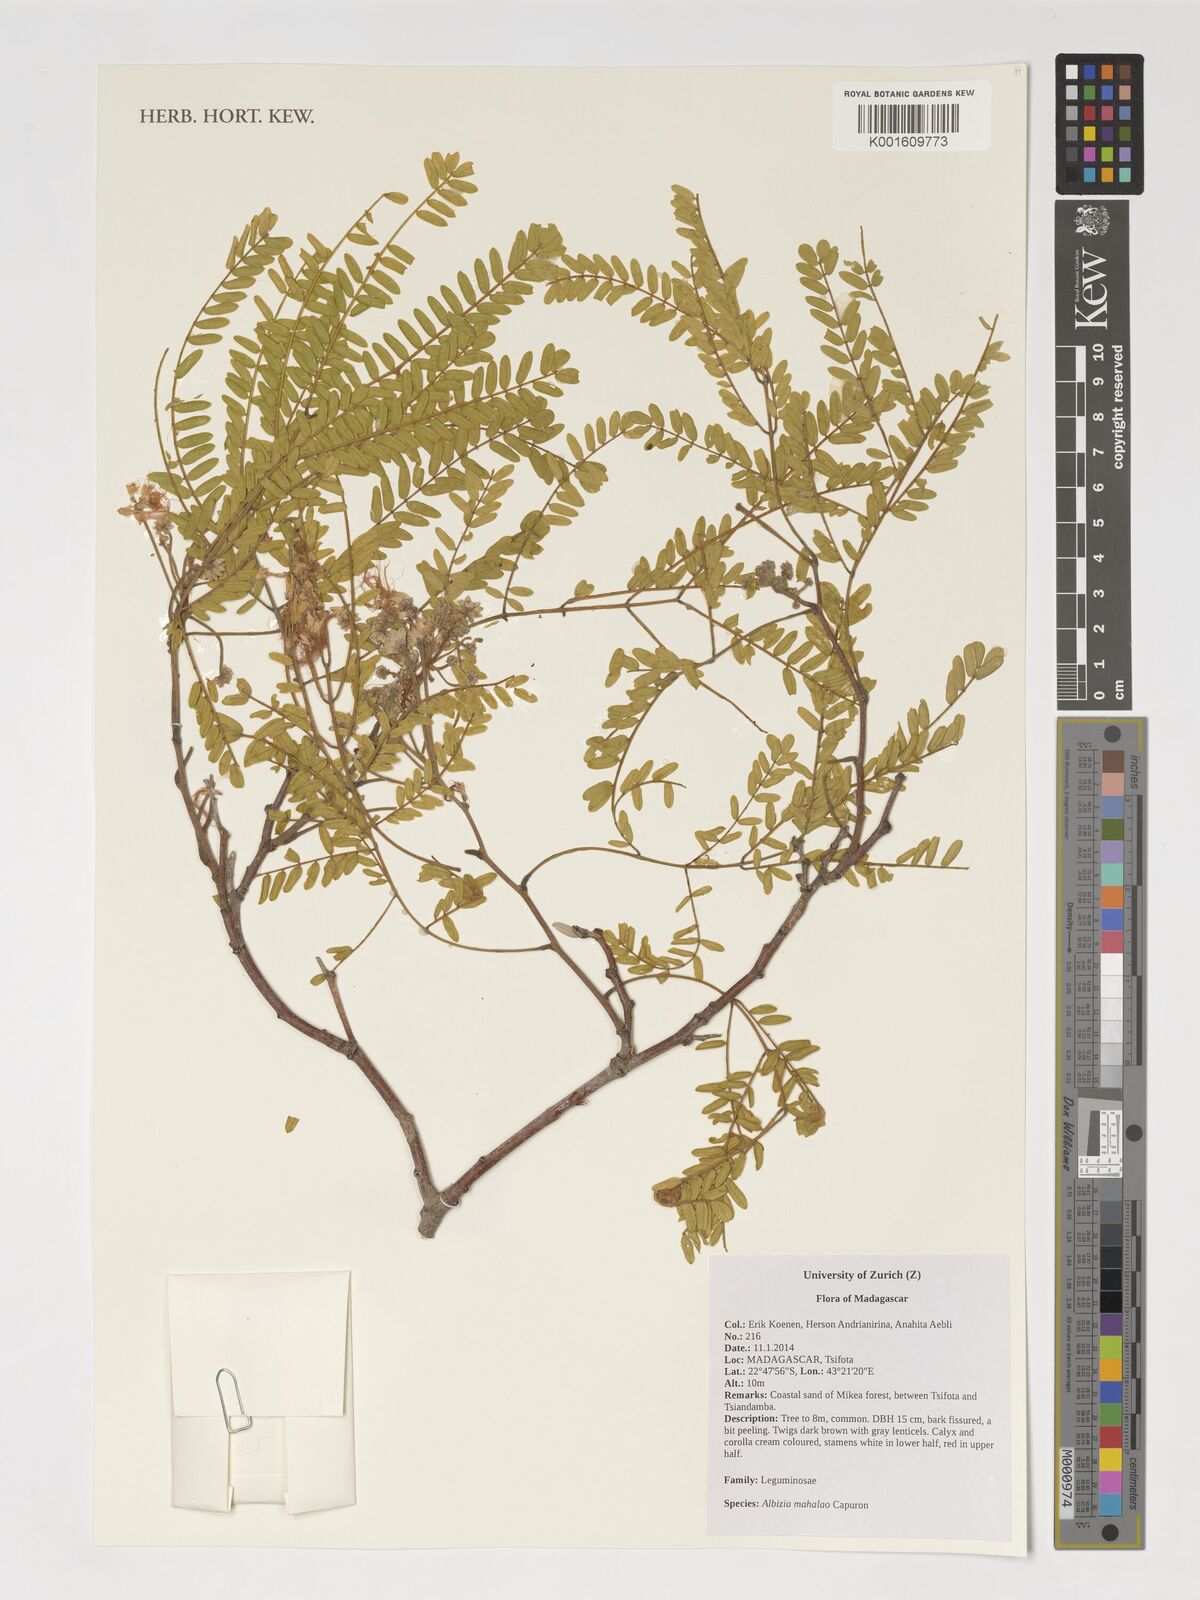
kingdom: Plantae
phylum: Tracheophyta
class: Magnoliopsida
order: Fabales
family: Fabaceae
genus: Albizia
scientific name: Albizia mahalao
